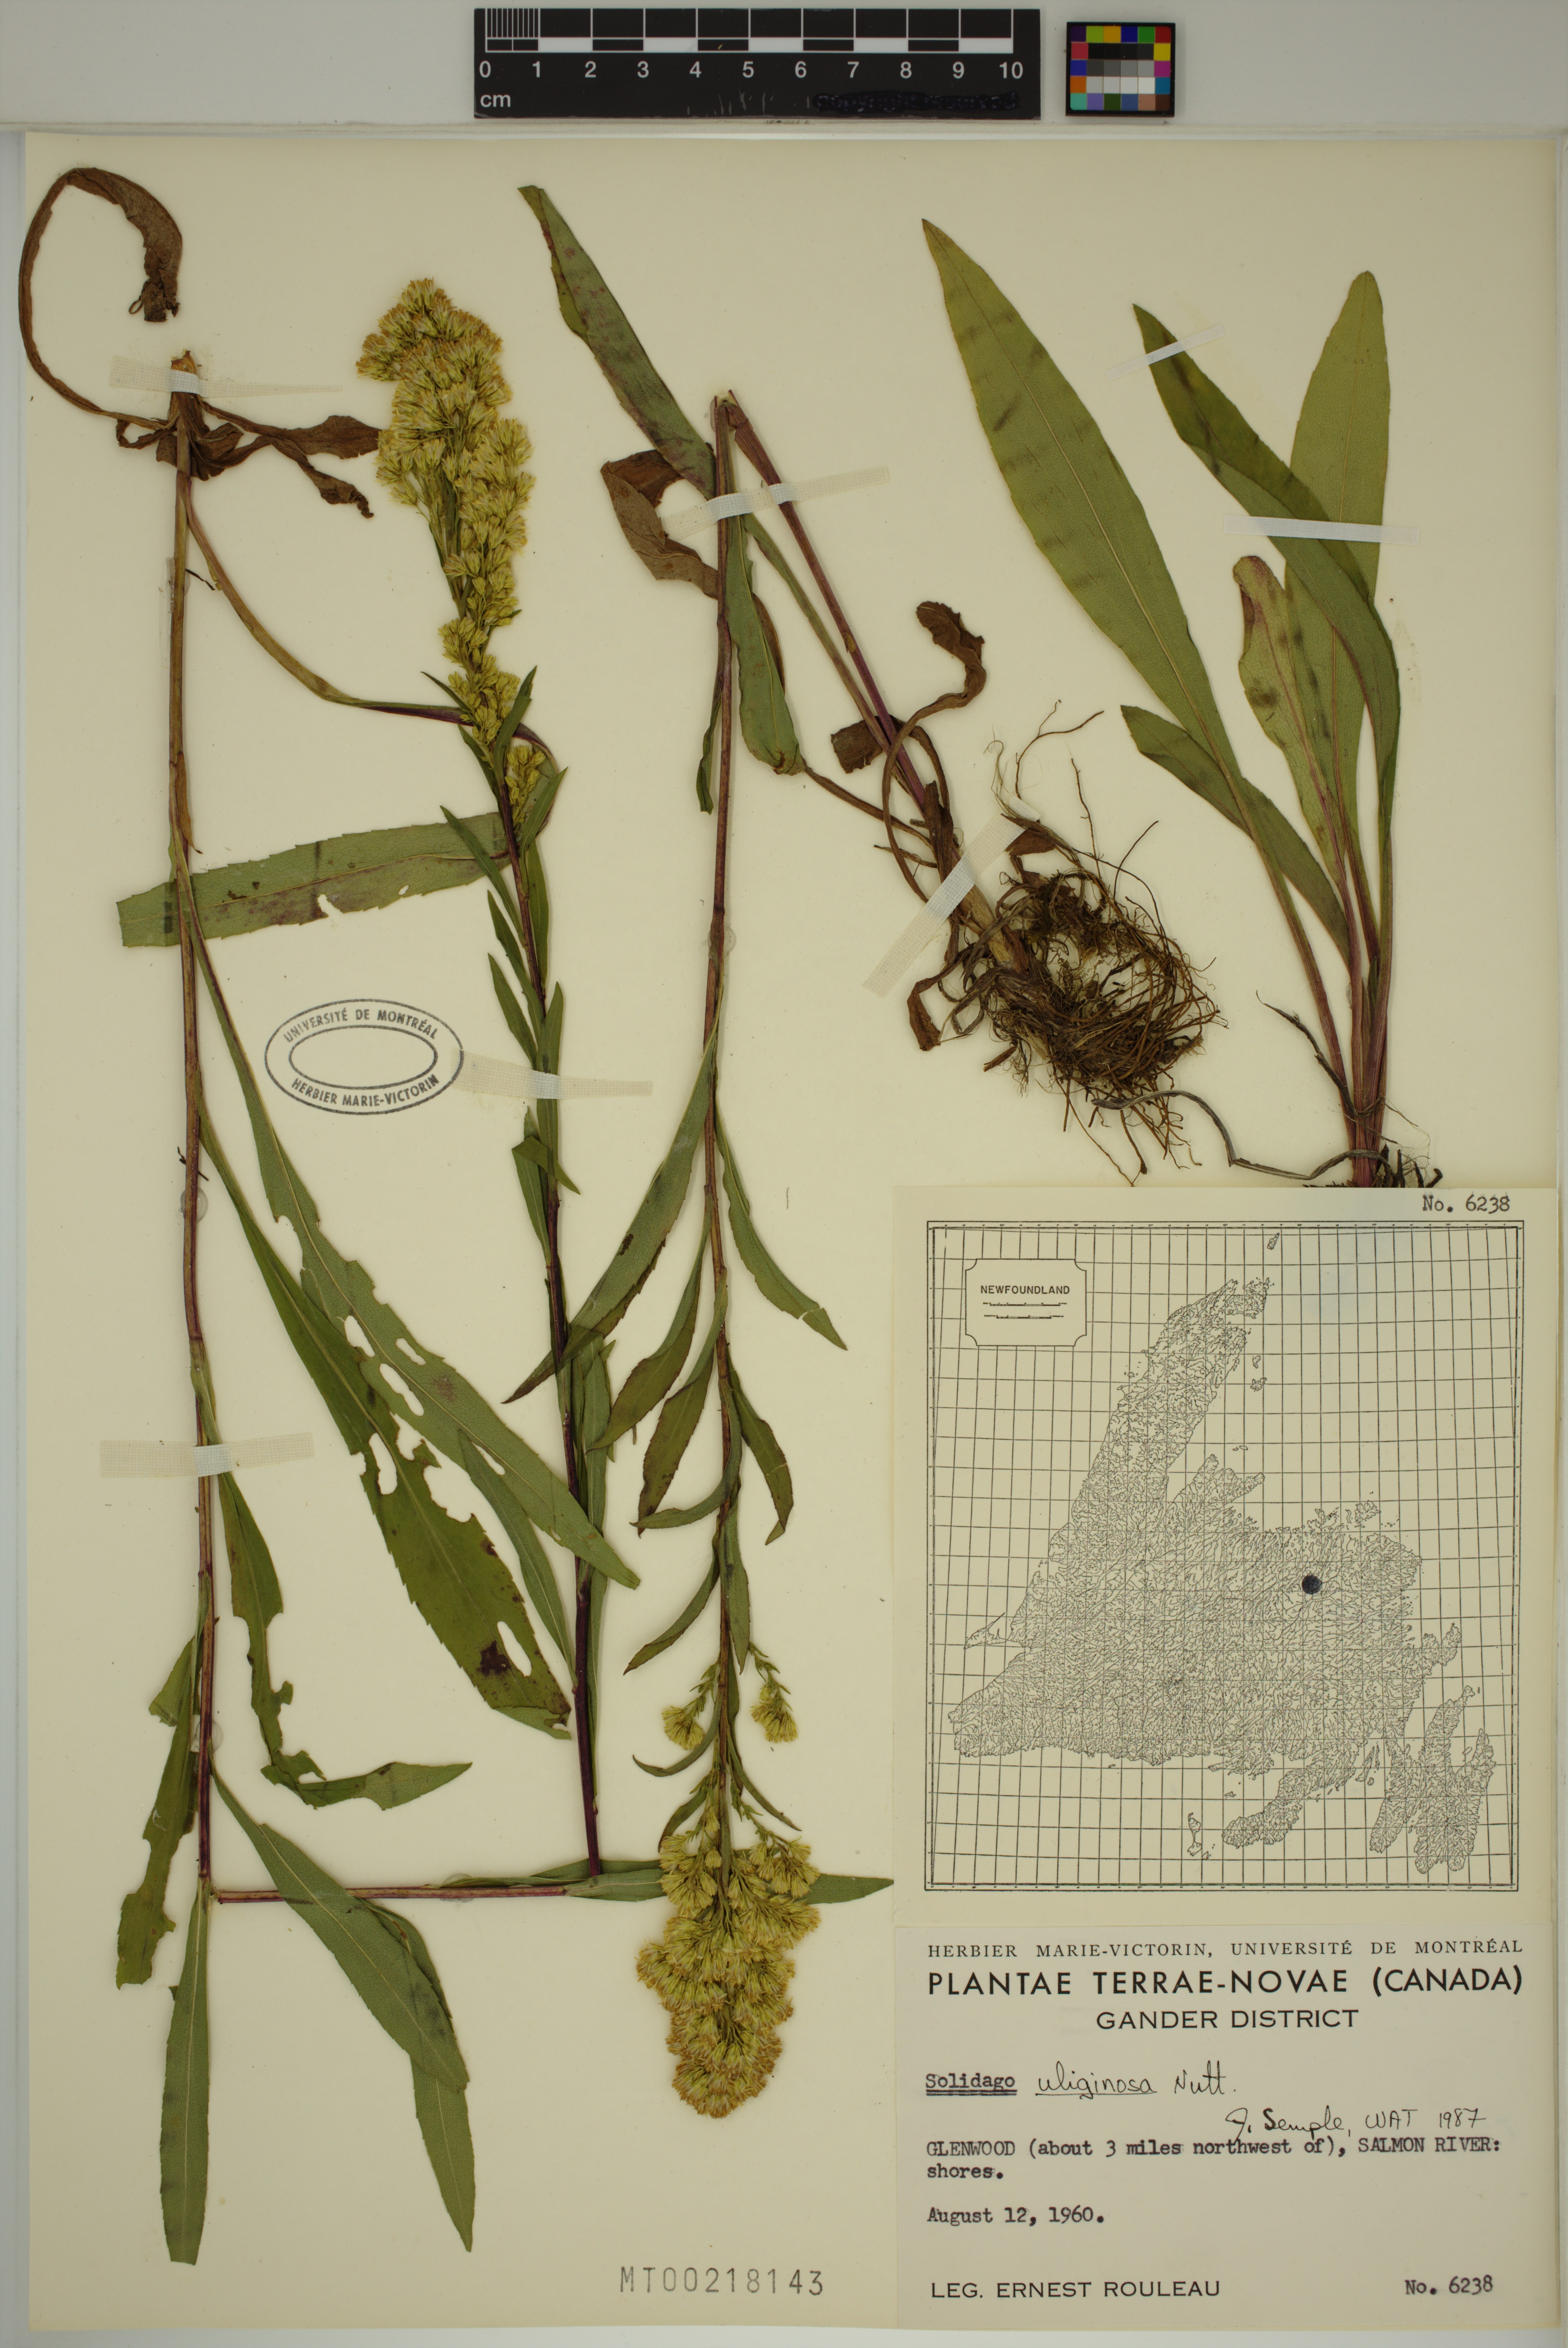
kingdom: Plantae
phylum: Tracheophyta
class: Magnoliopsida
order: Asterales
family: Asteraceae
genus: Solidago
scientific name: Solidago uliginosa
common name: Bog goldenrod
